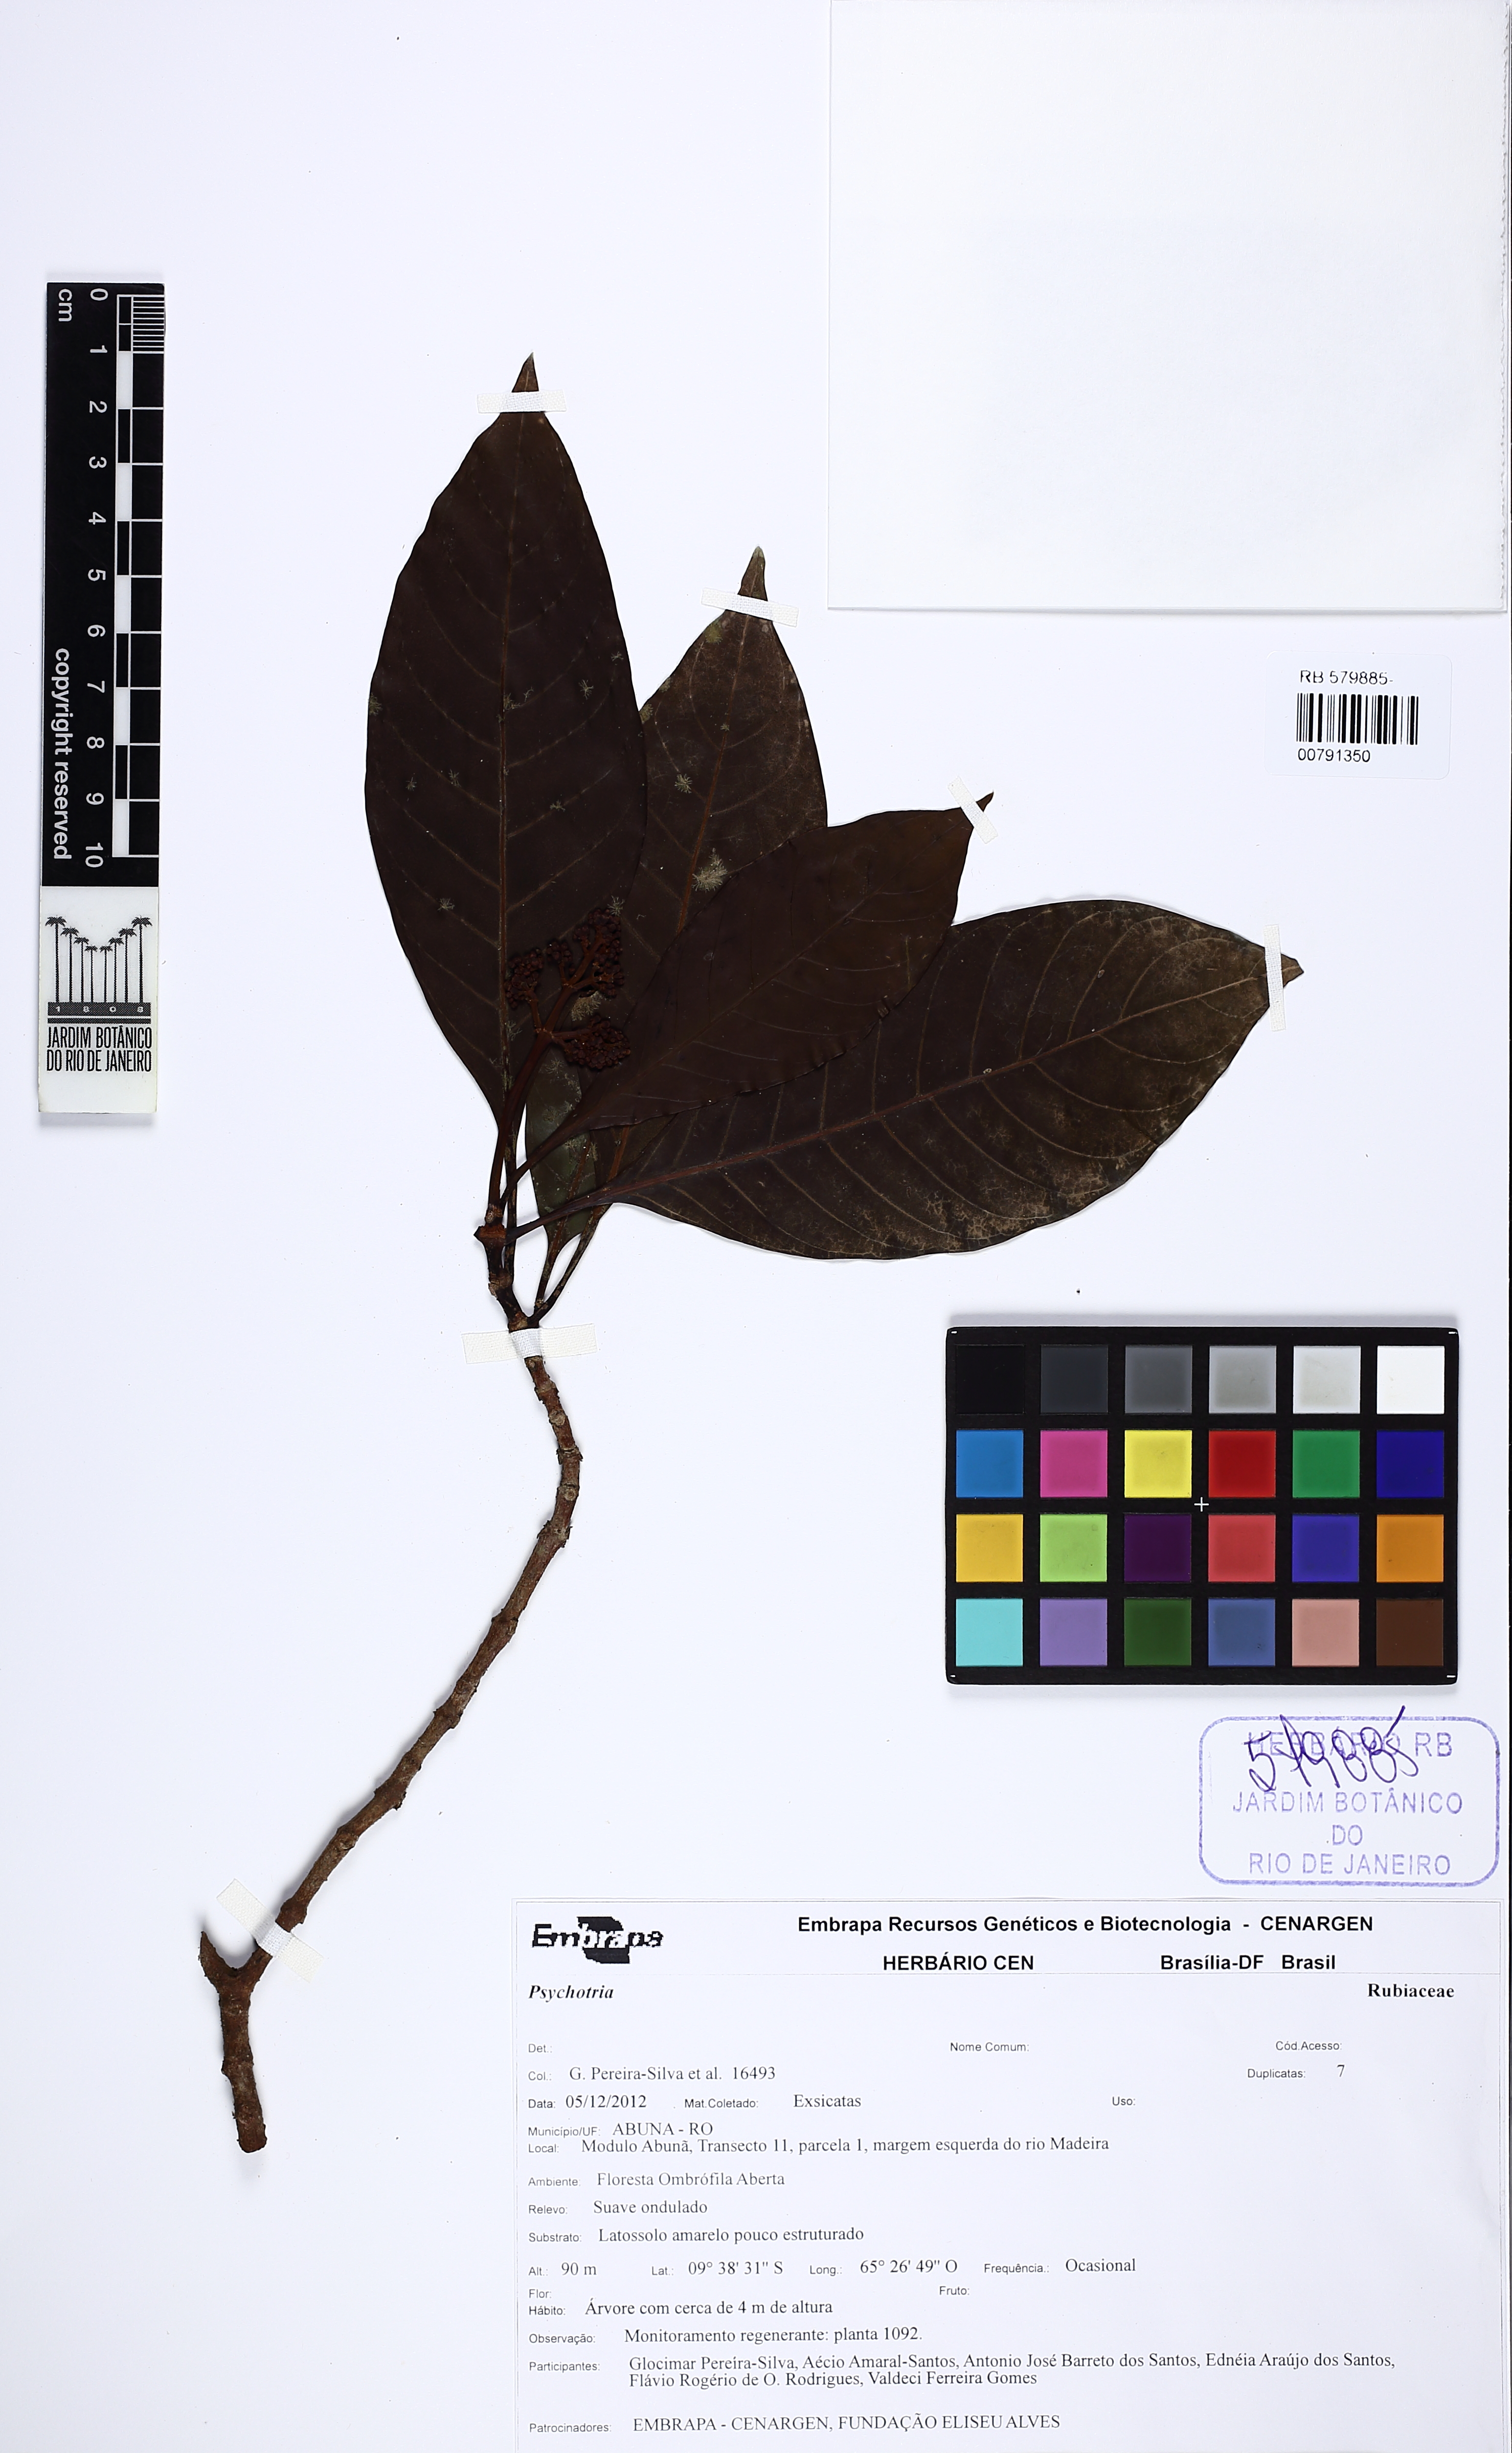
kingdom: Plantae
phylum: Tracheophyta
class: Magnoliopsida
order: Gentianales
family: Rubiaceae
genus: Psychotria
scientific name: Psychotria
